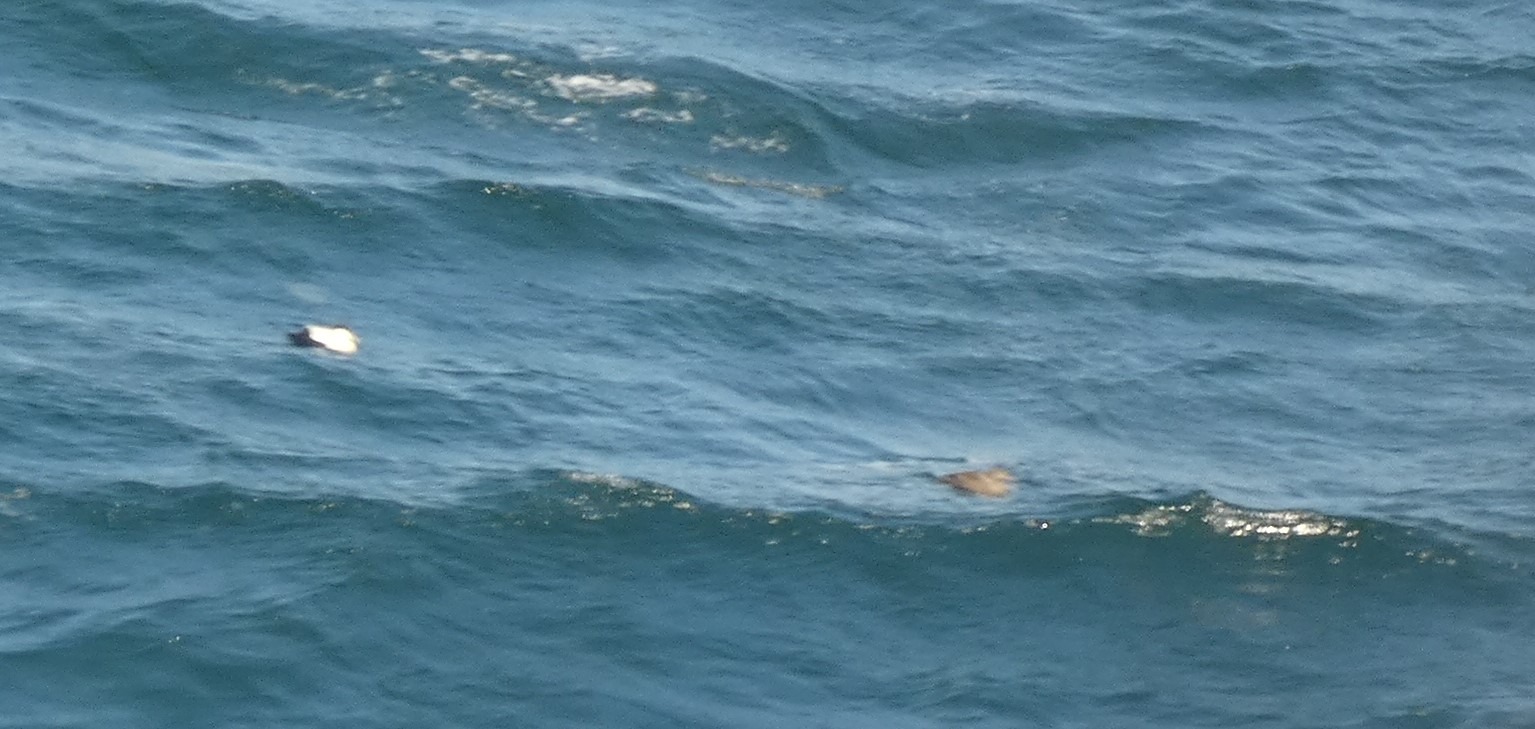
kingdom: Animalia
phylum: Chordata
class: Aves
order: Anseriformes
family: Anatidae
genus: Somateria
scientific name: Somateria mollissima
